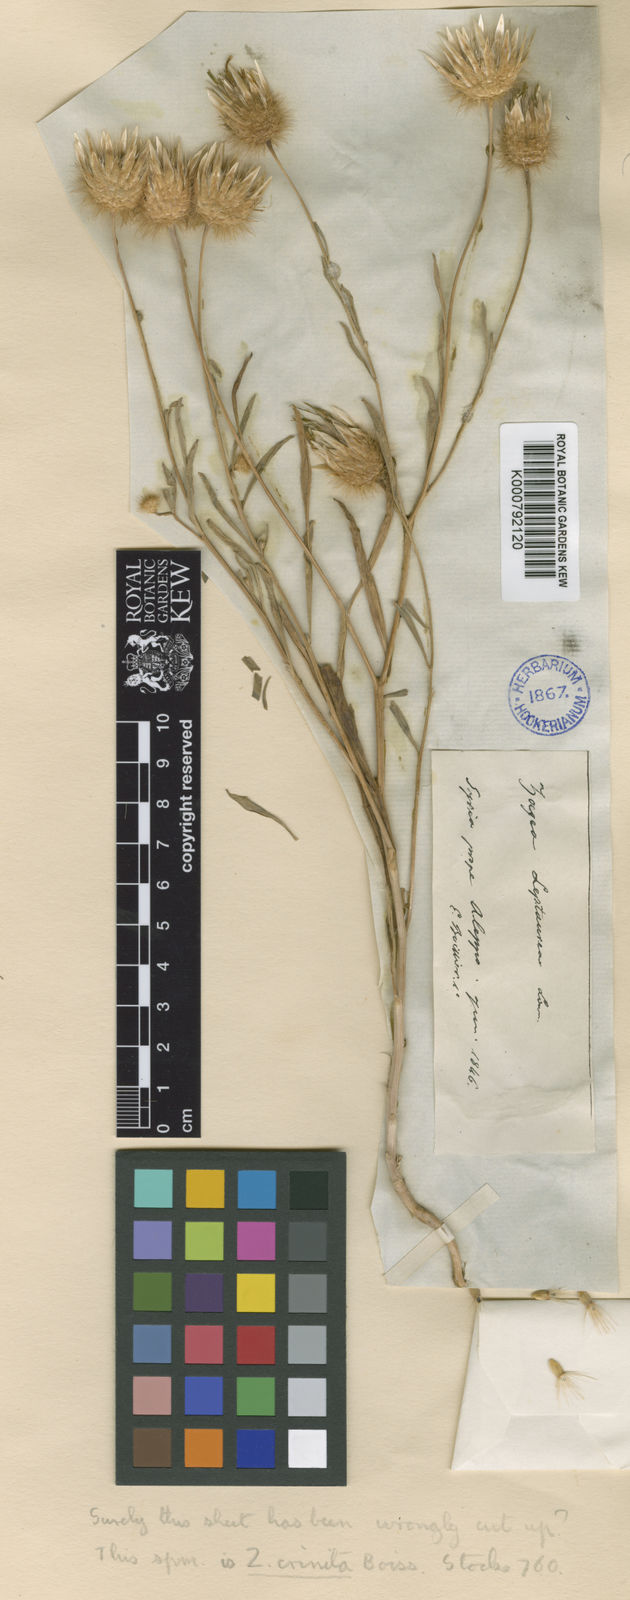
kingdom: Plantae
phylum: Tracheophyta
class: Magnoliopsida
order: Asterales
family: Asteraceae
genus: Zoegea
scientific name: Zoegea crinita
